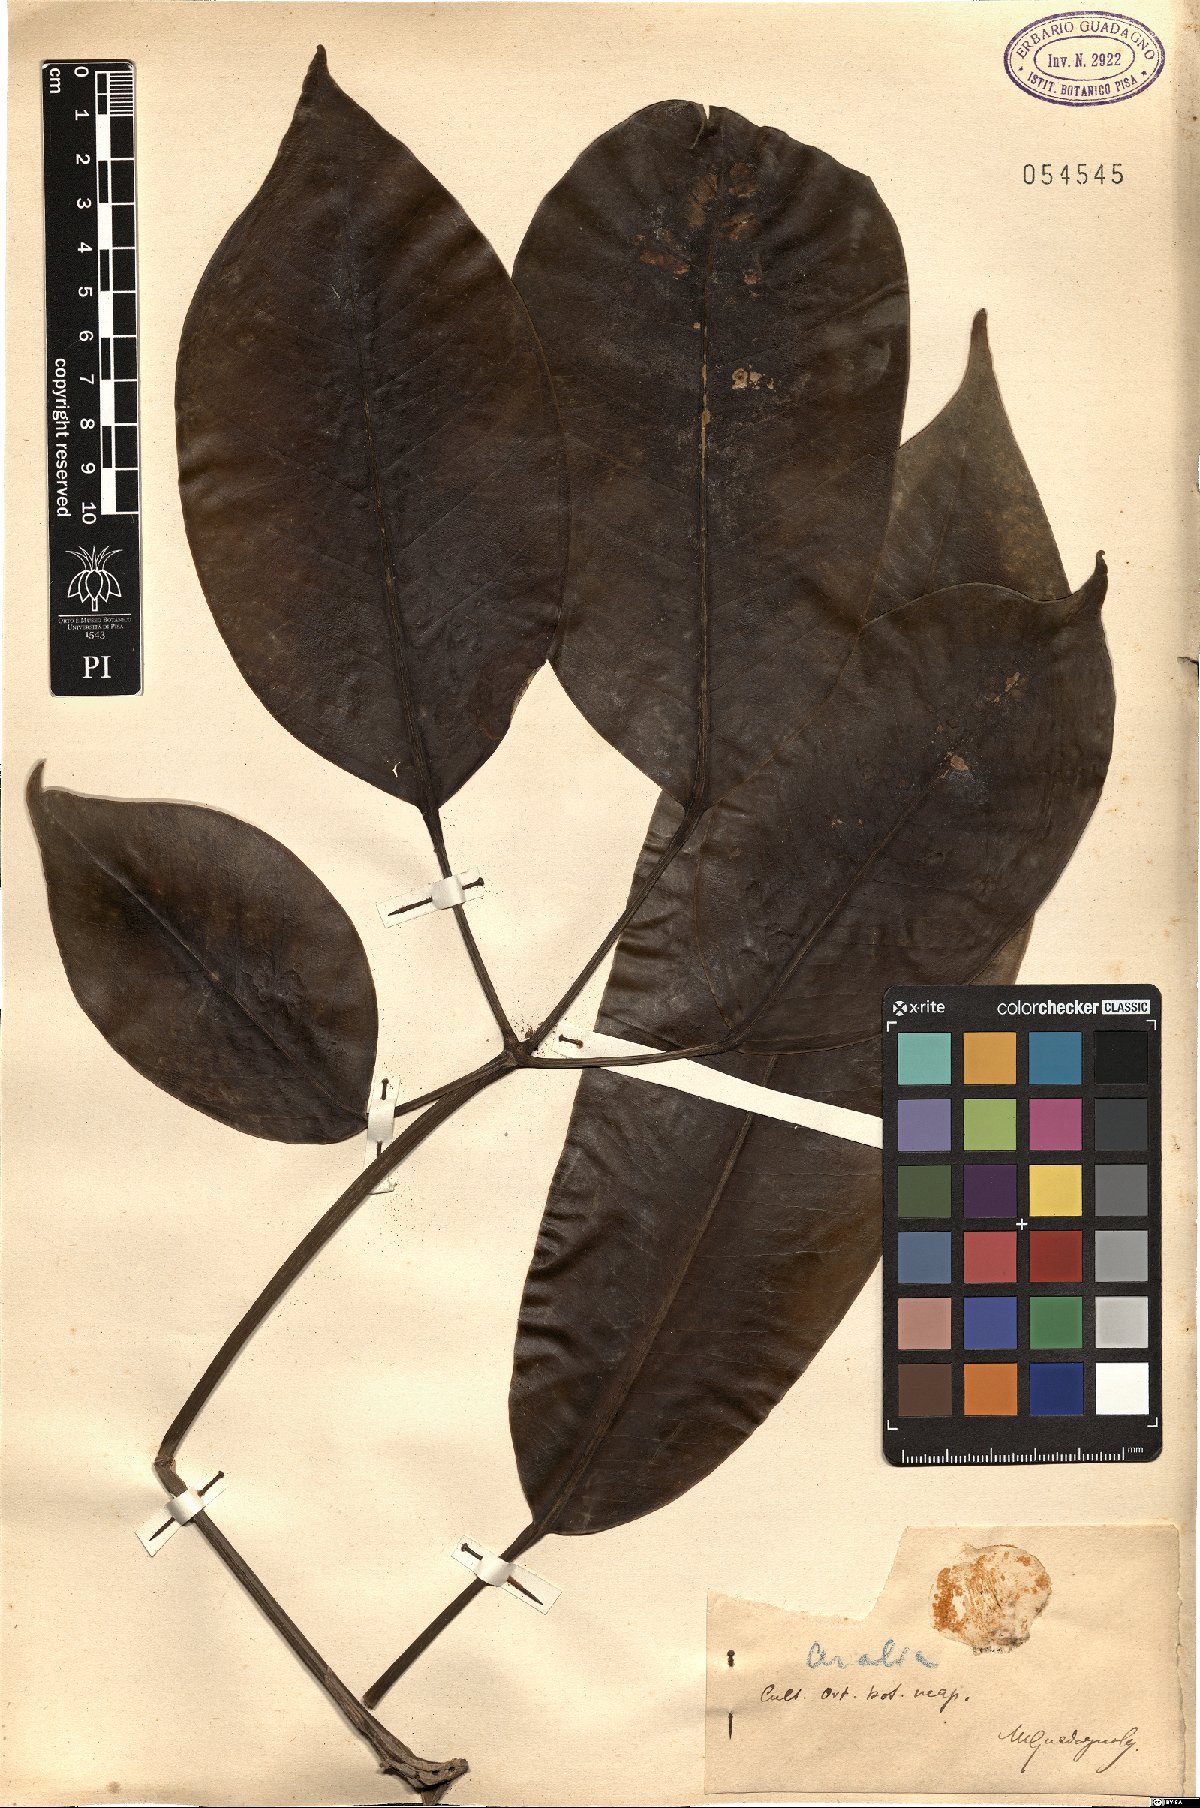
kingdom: Plantae
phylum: Tracheophyta
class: Magnoliopsida
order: Apiales
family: Araliaceae
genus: Aralia
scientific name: Aralia
